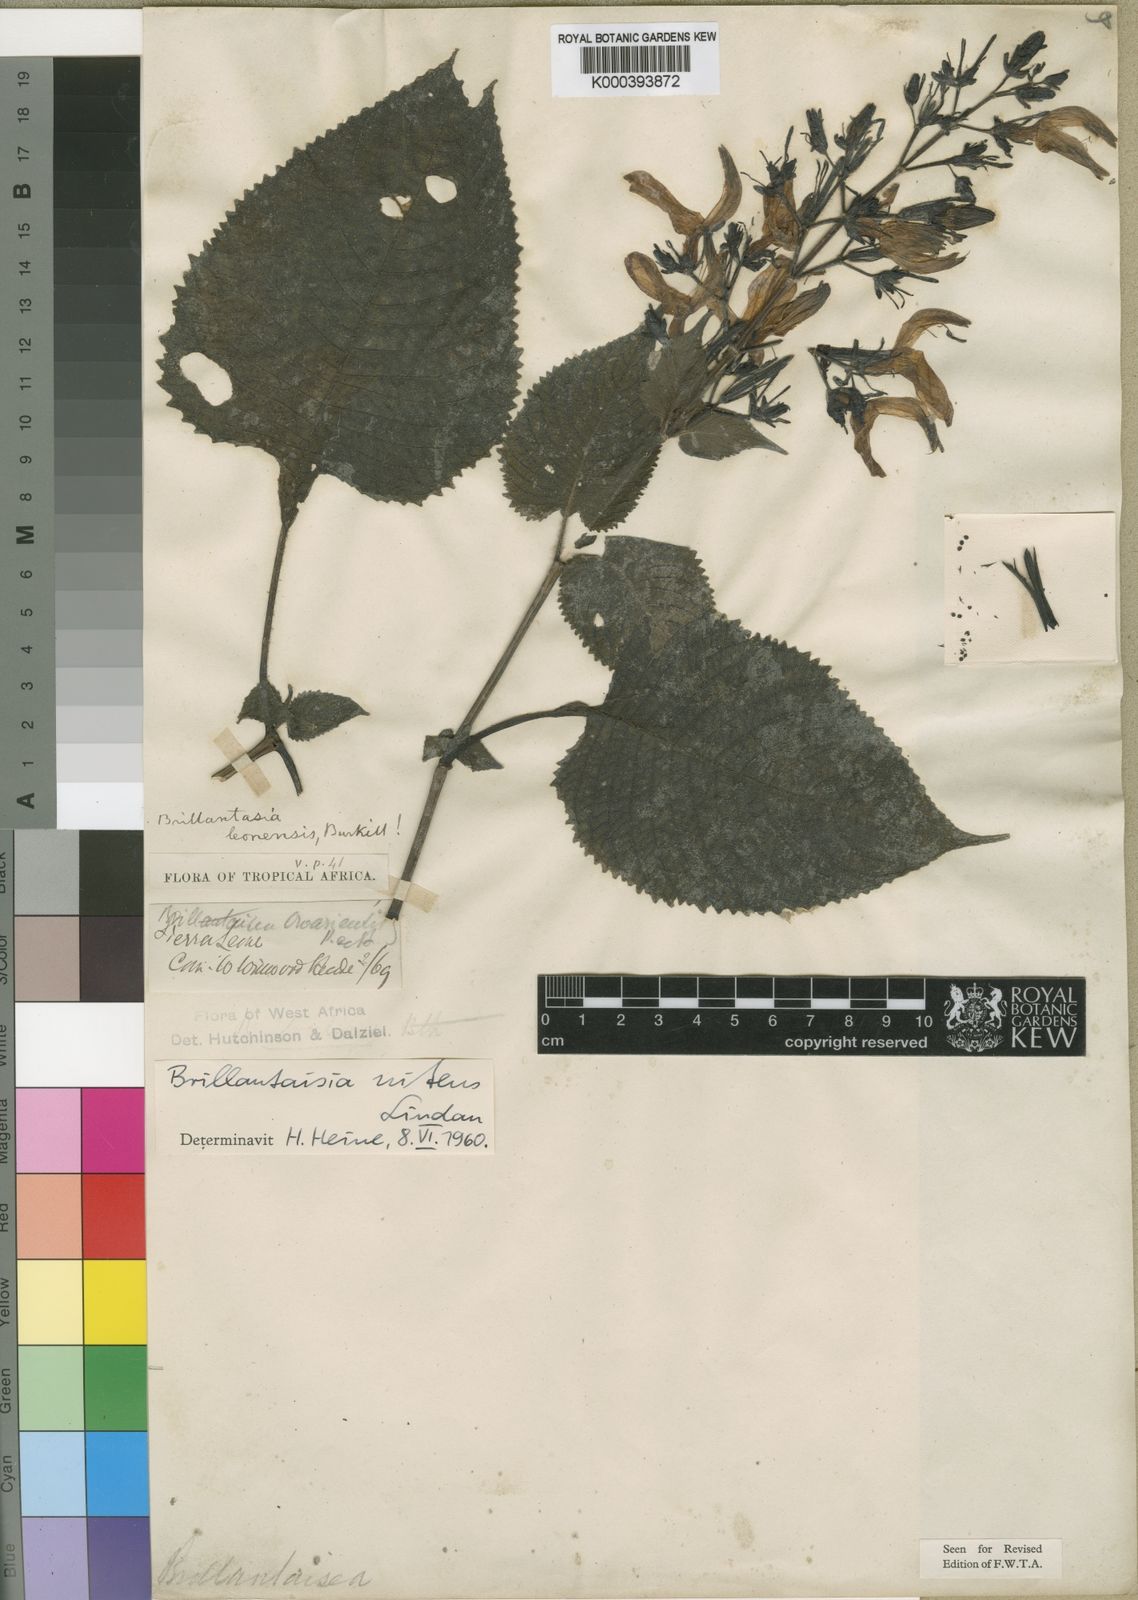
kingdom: Plantae
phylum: Tracheophyta
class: Magnoliopsida
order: Lamiales
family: Acanthaceae
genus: Brillantaisia
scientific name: Brillantaisia owariensis
